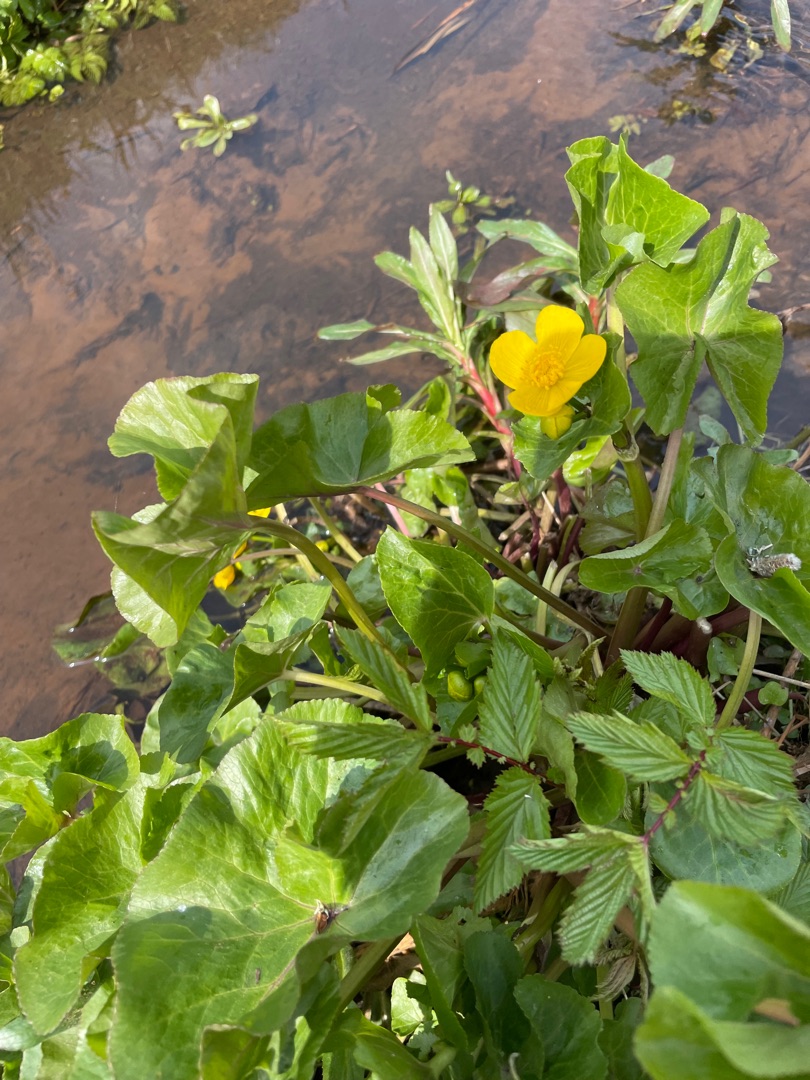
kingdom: Plantae
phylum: Tracheophyta
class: Magnoliopsida
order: Ranunculales
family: Ranunculaceae
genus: Caltha
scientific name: Caltha palustris
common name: Eng-kabbeleje
